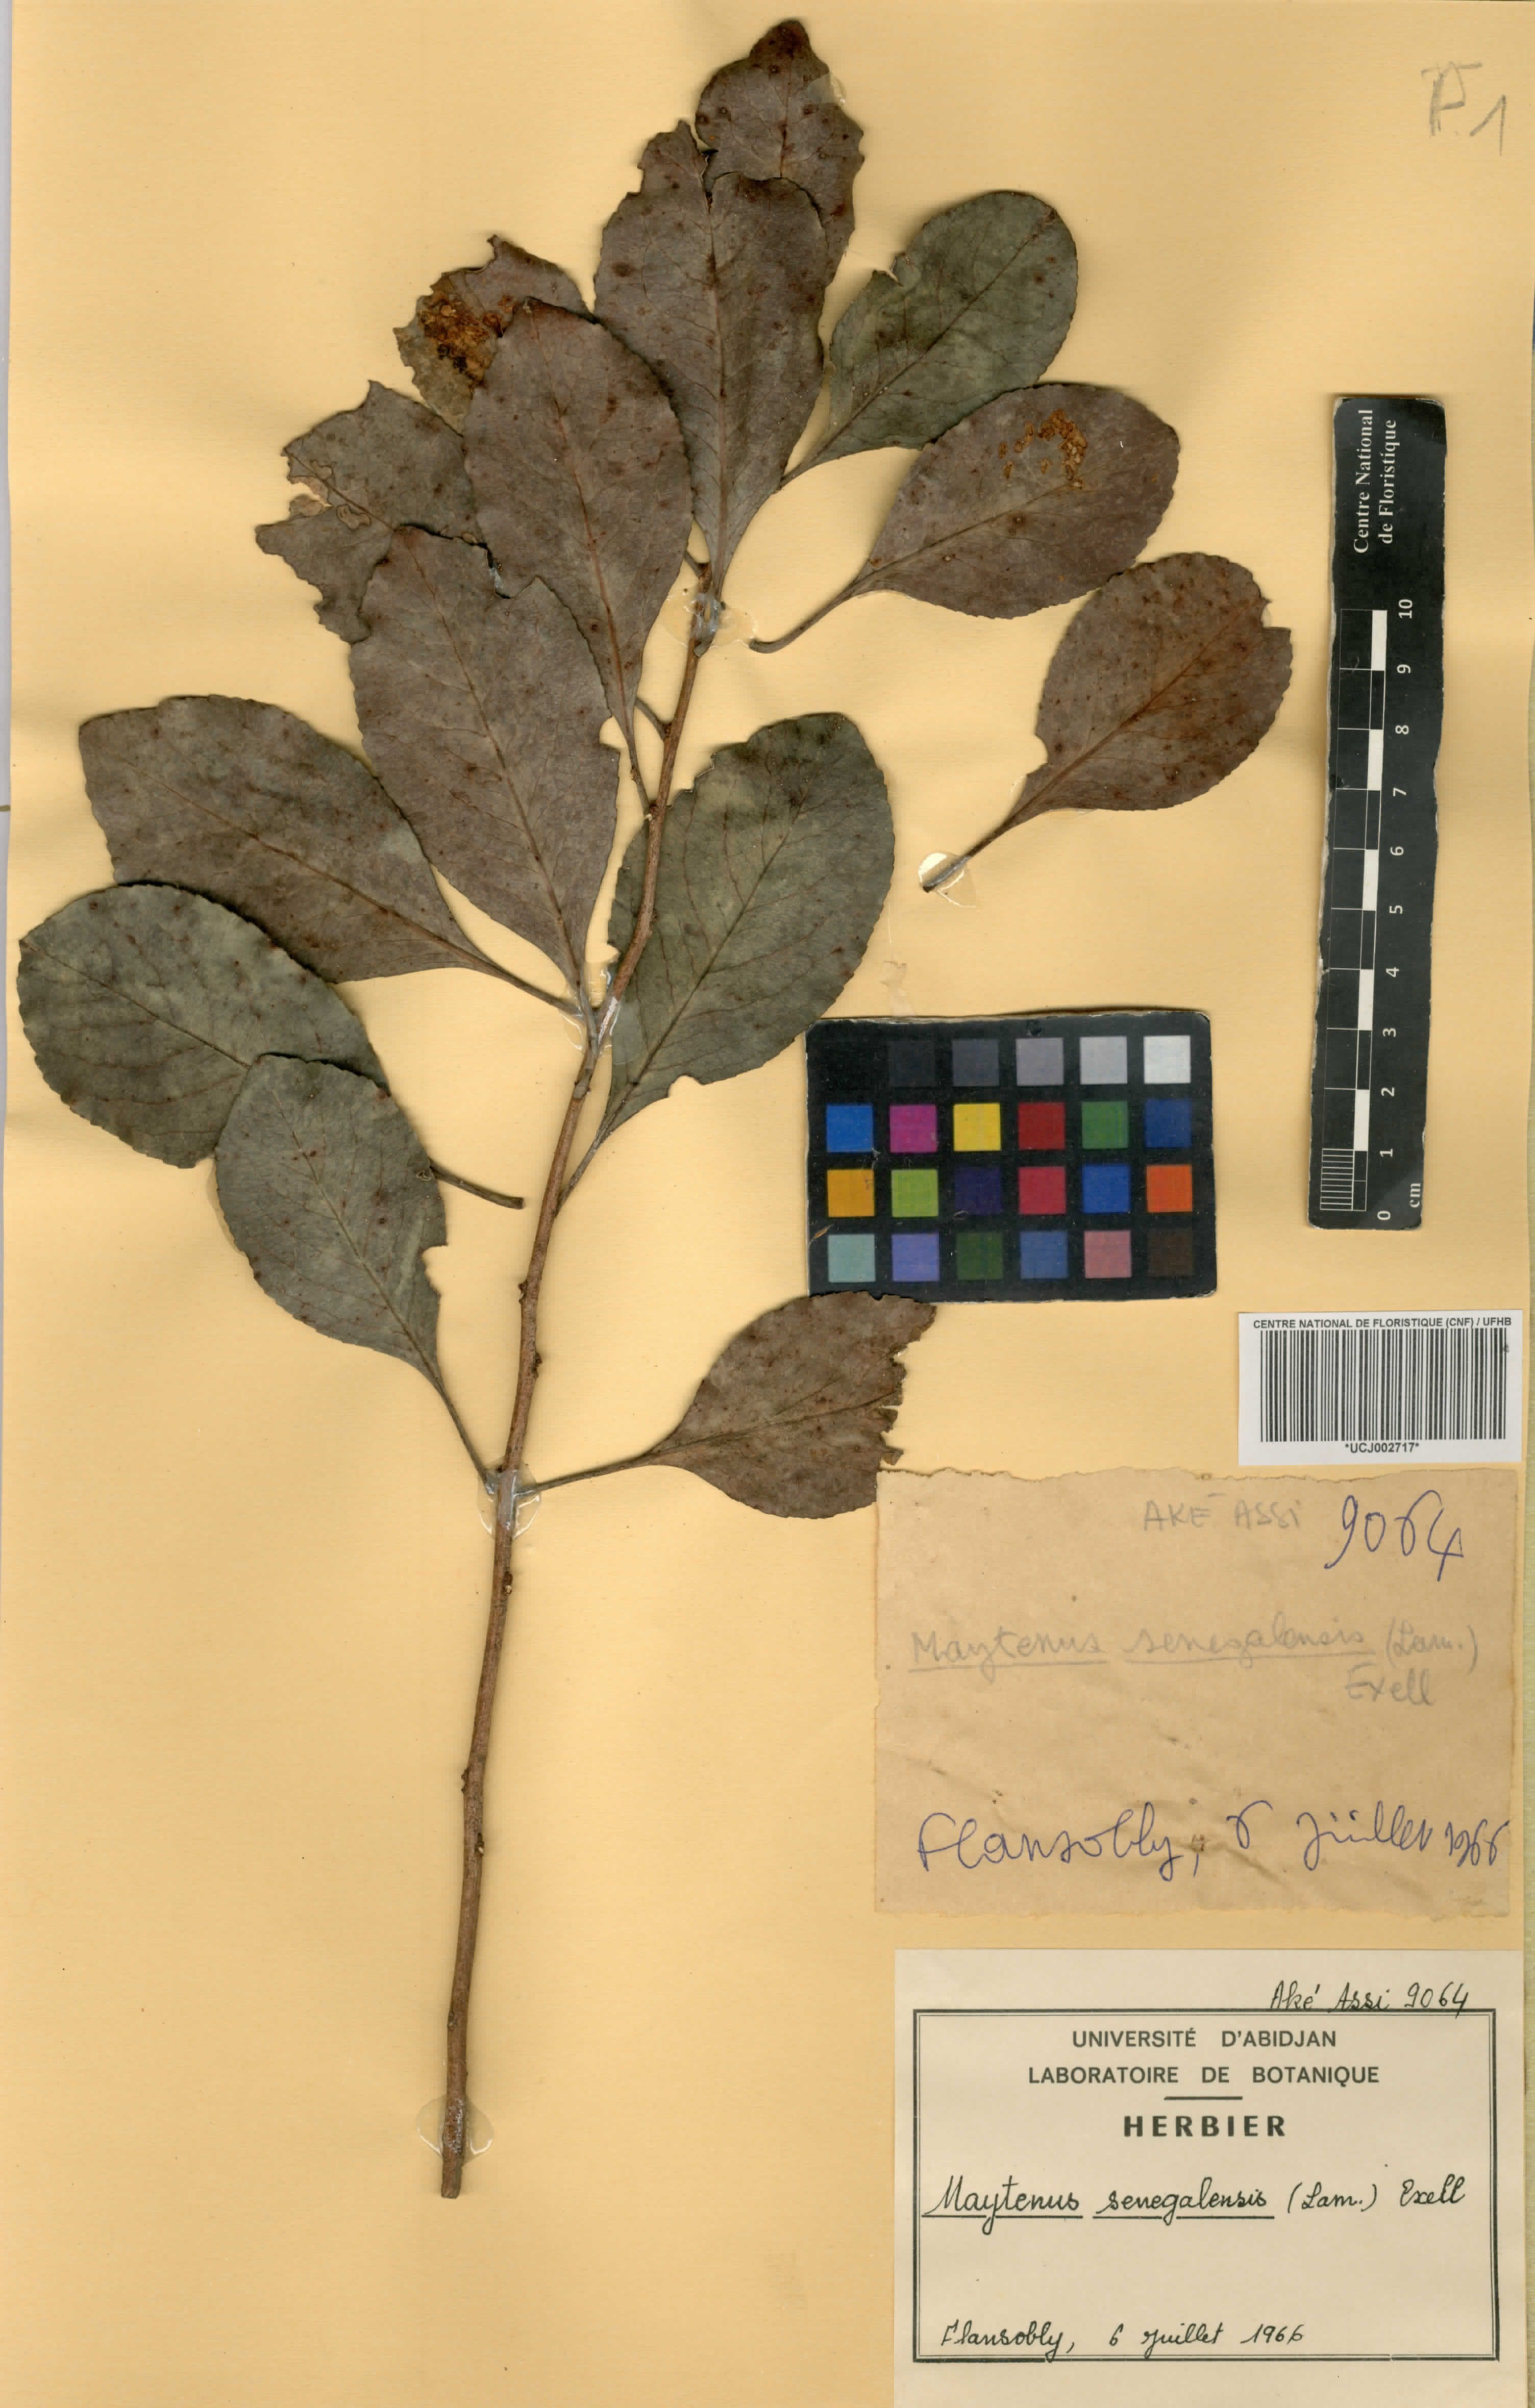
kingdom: Plantae
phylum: Tracheophyta
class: Magnoliopsida
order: Celastrales
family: Celastraceae
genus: Gymnosporia
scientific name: Gymnosporia senegalensis
